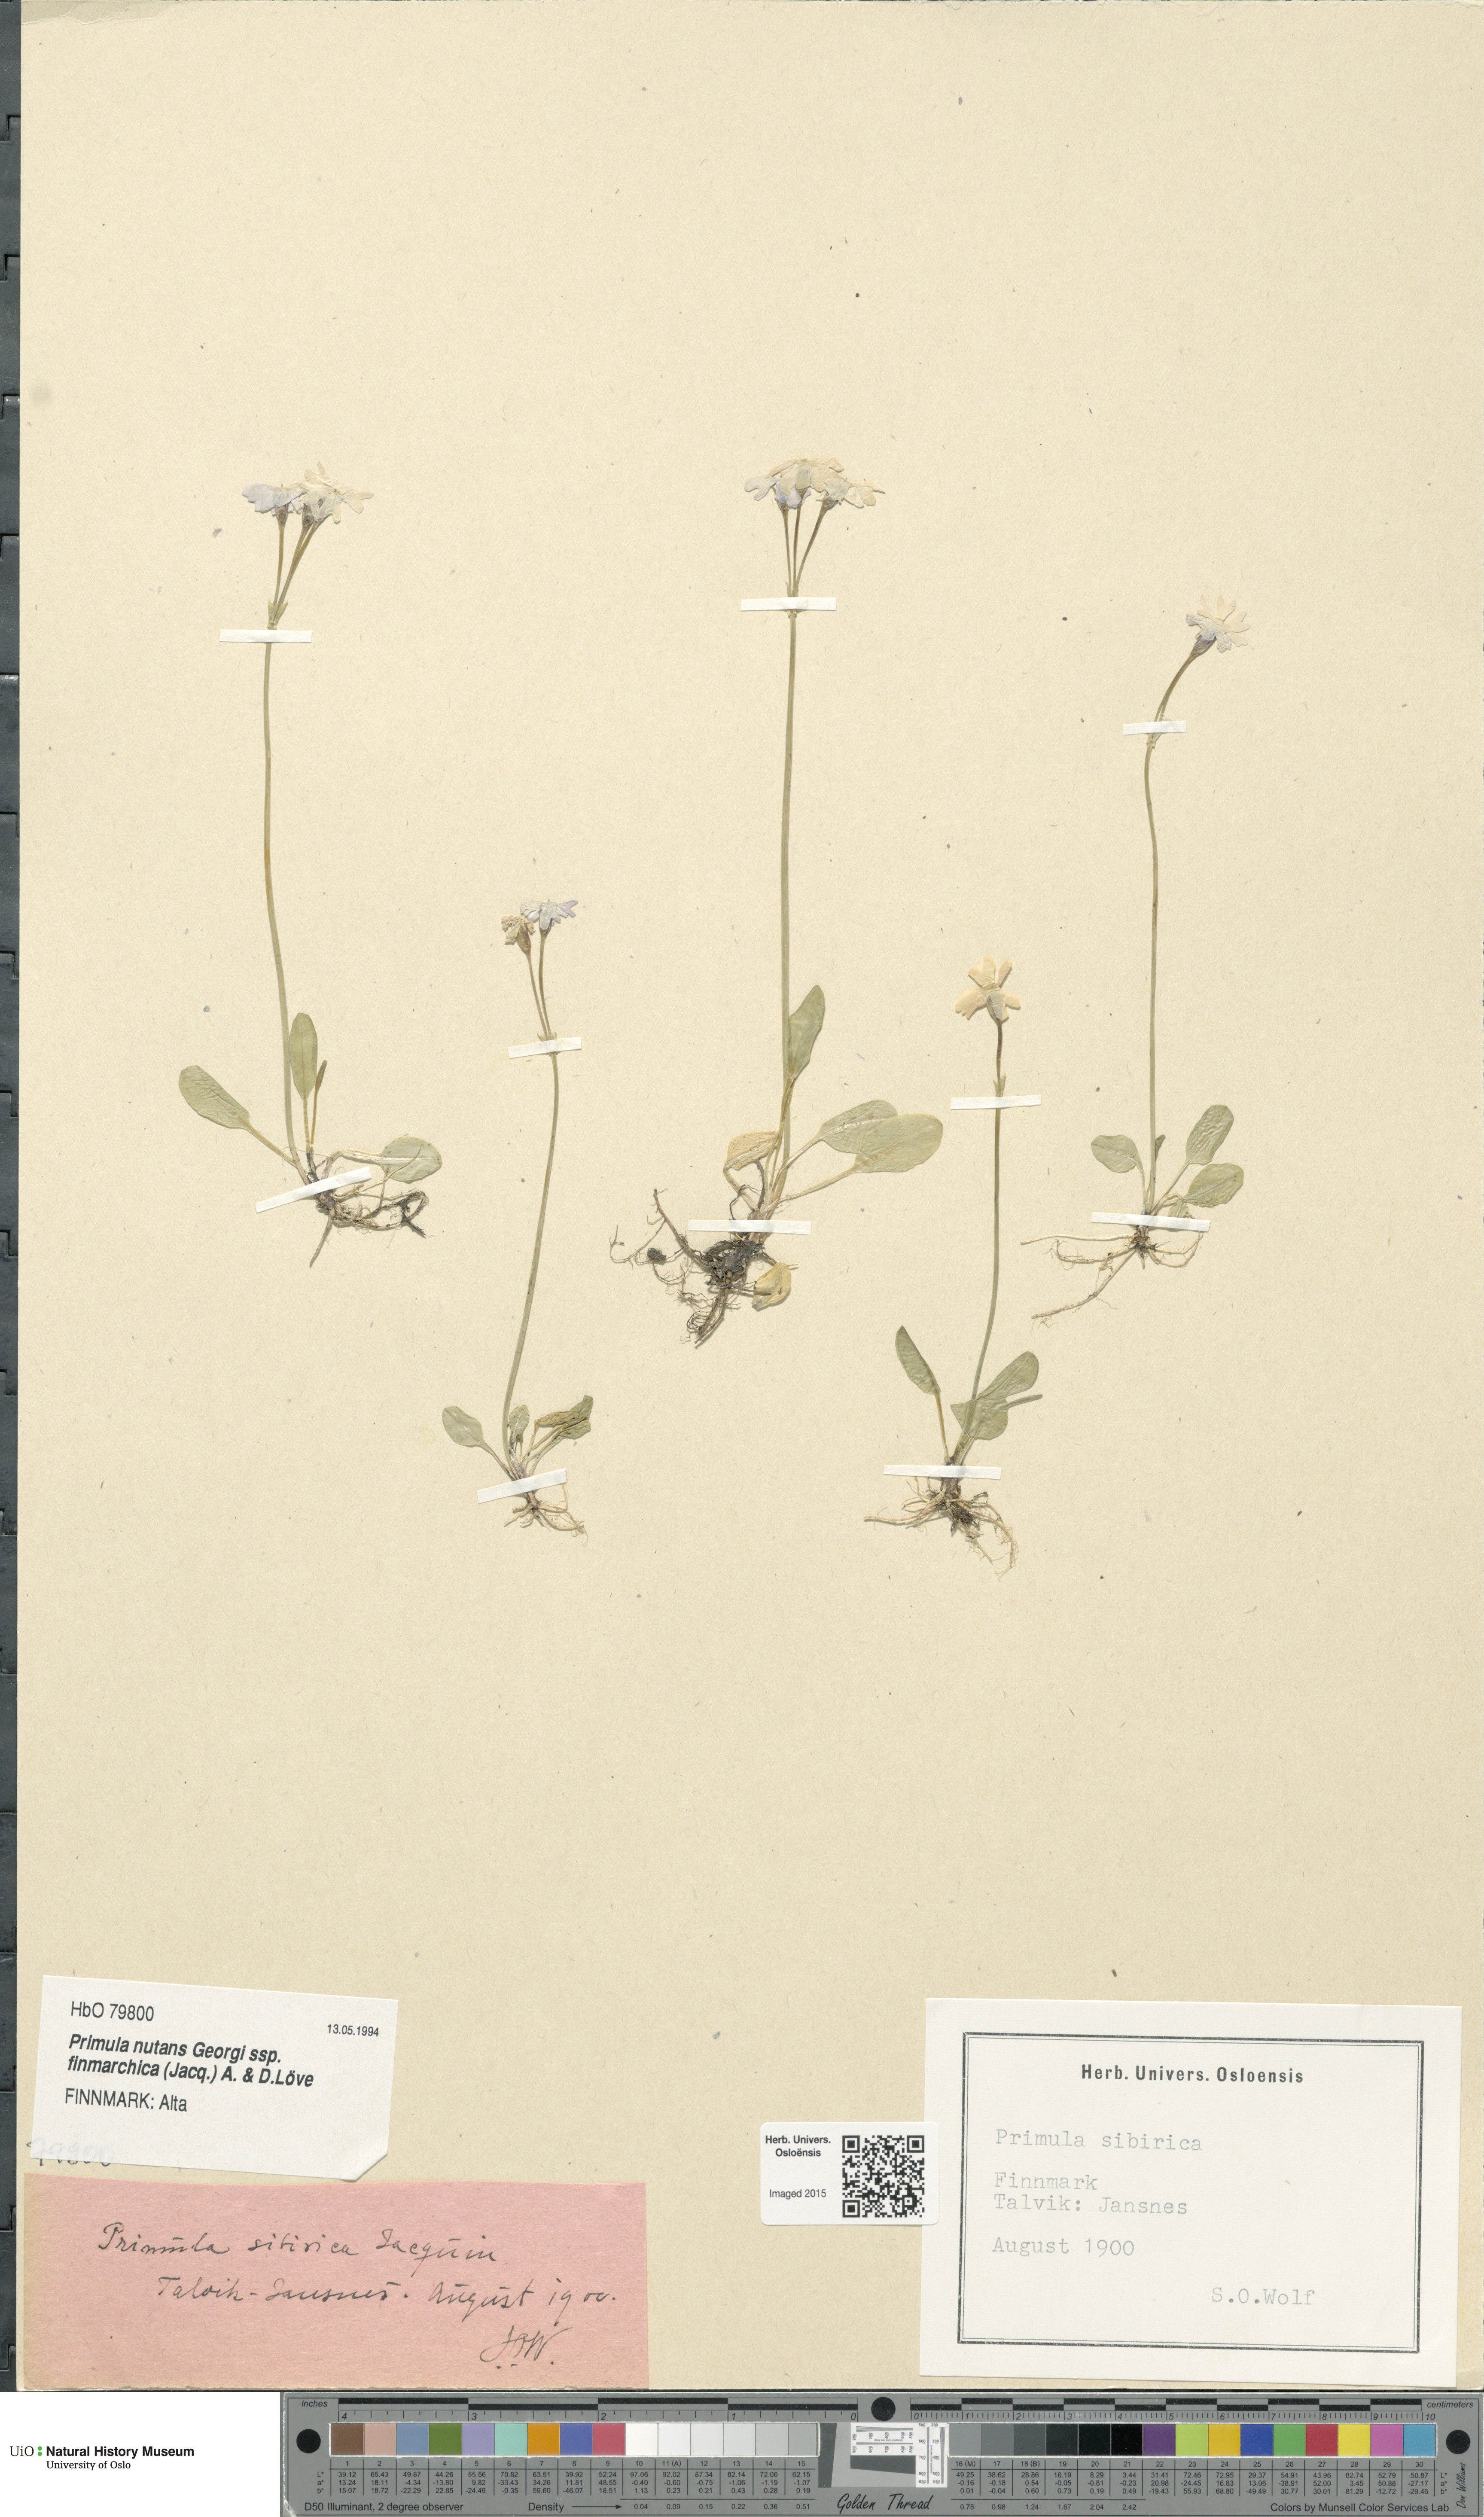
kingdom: Plantae
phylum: Tracheophyta
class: Magnoliopsida
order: Ericales
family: Primulaceae
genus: Primula
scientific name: Primula nutans
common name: Siberian primrose
